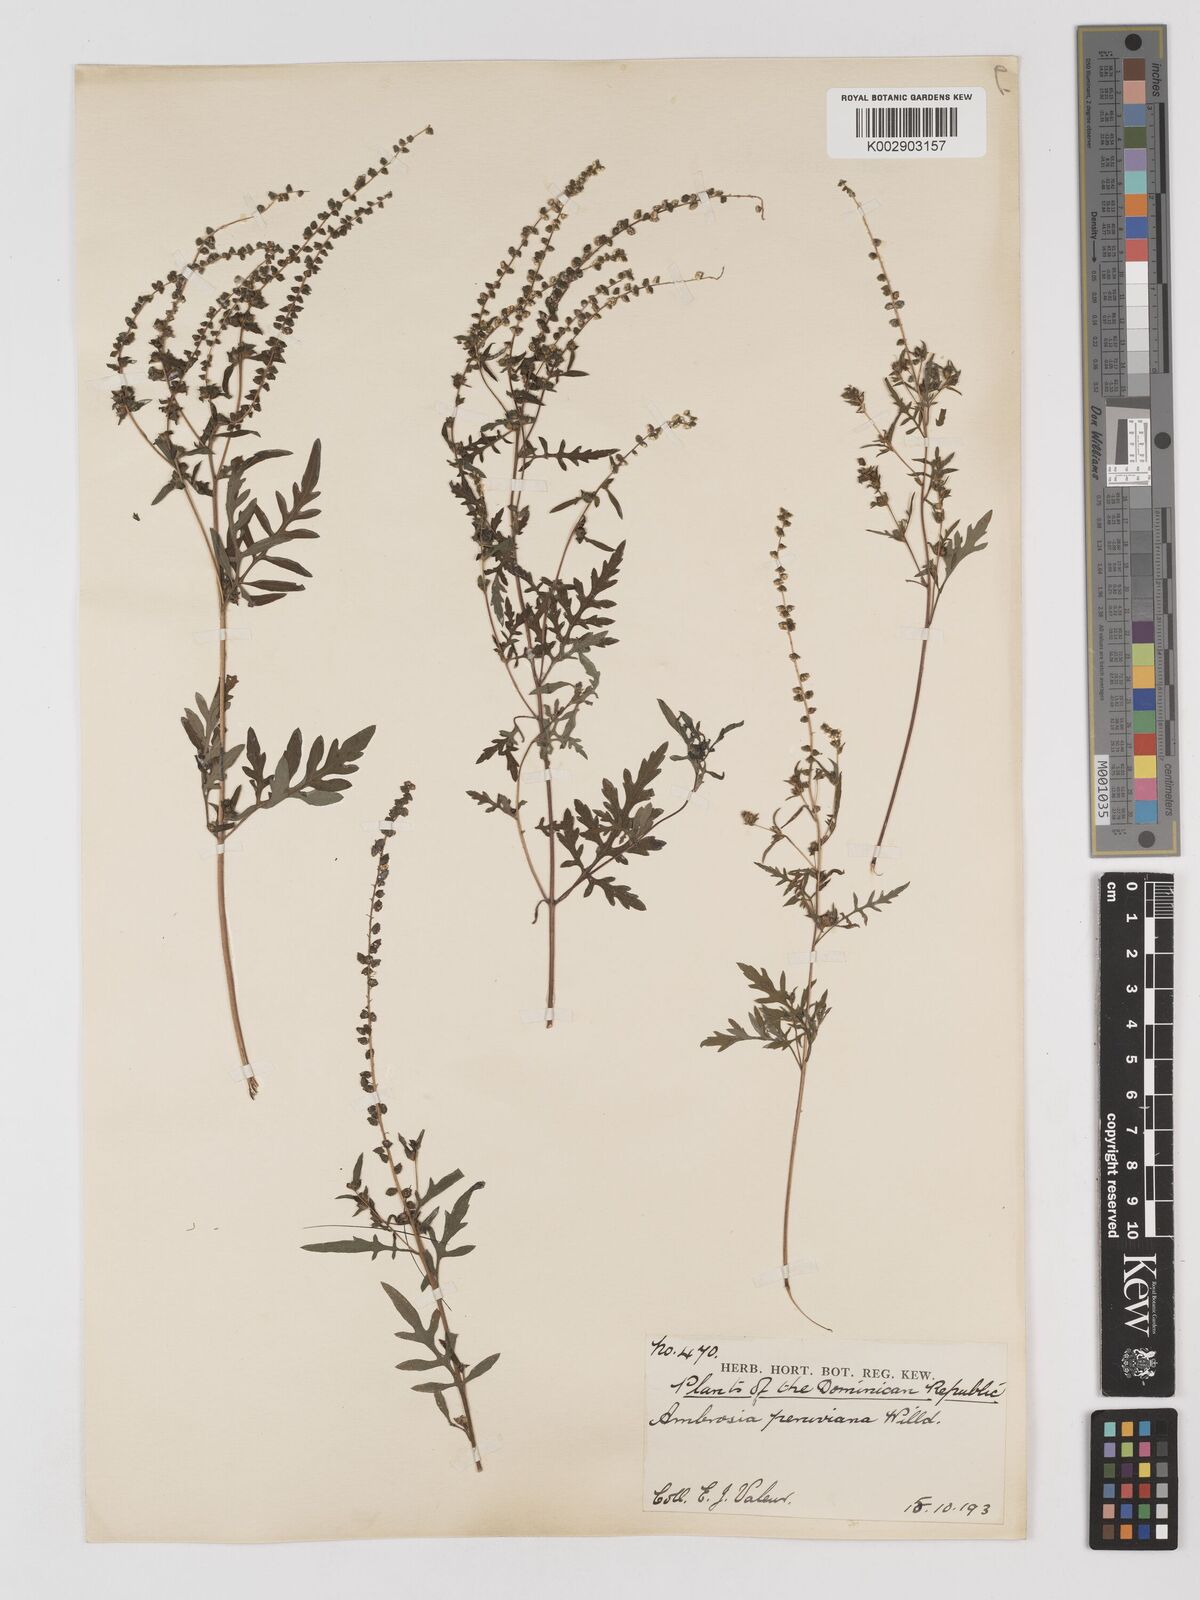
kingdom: Plantae
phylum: Tracheophyta
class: Magnoliopsida
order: Asterales
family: Asteraceae
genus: Ambrosia
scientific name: Ambrosia cumanensis
